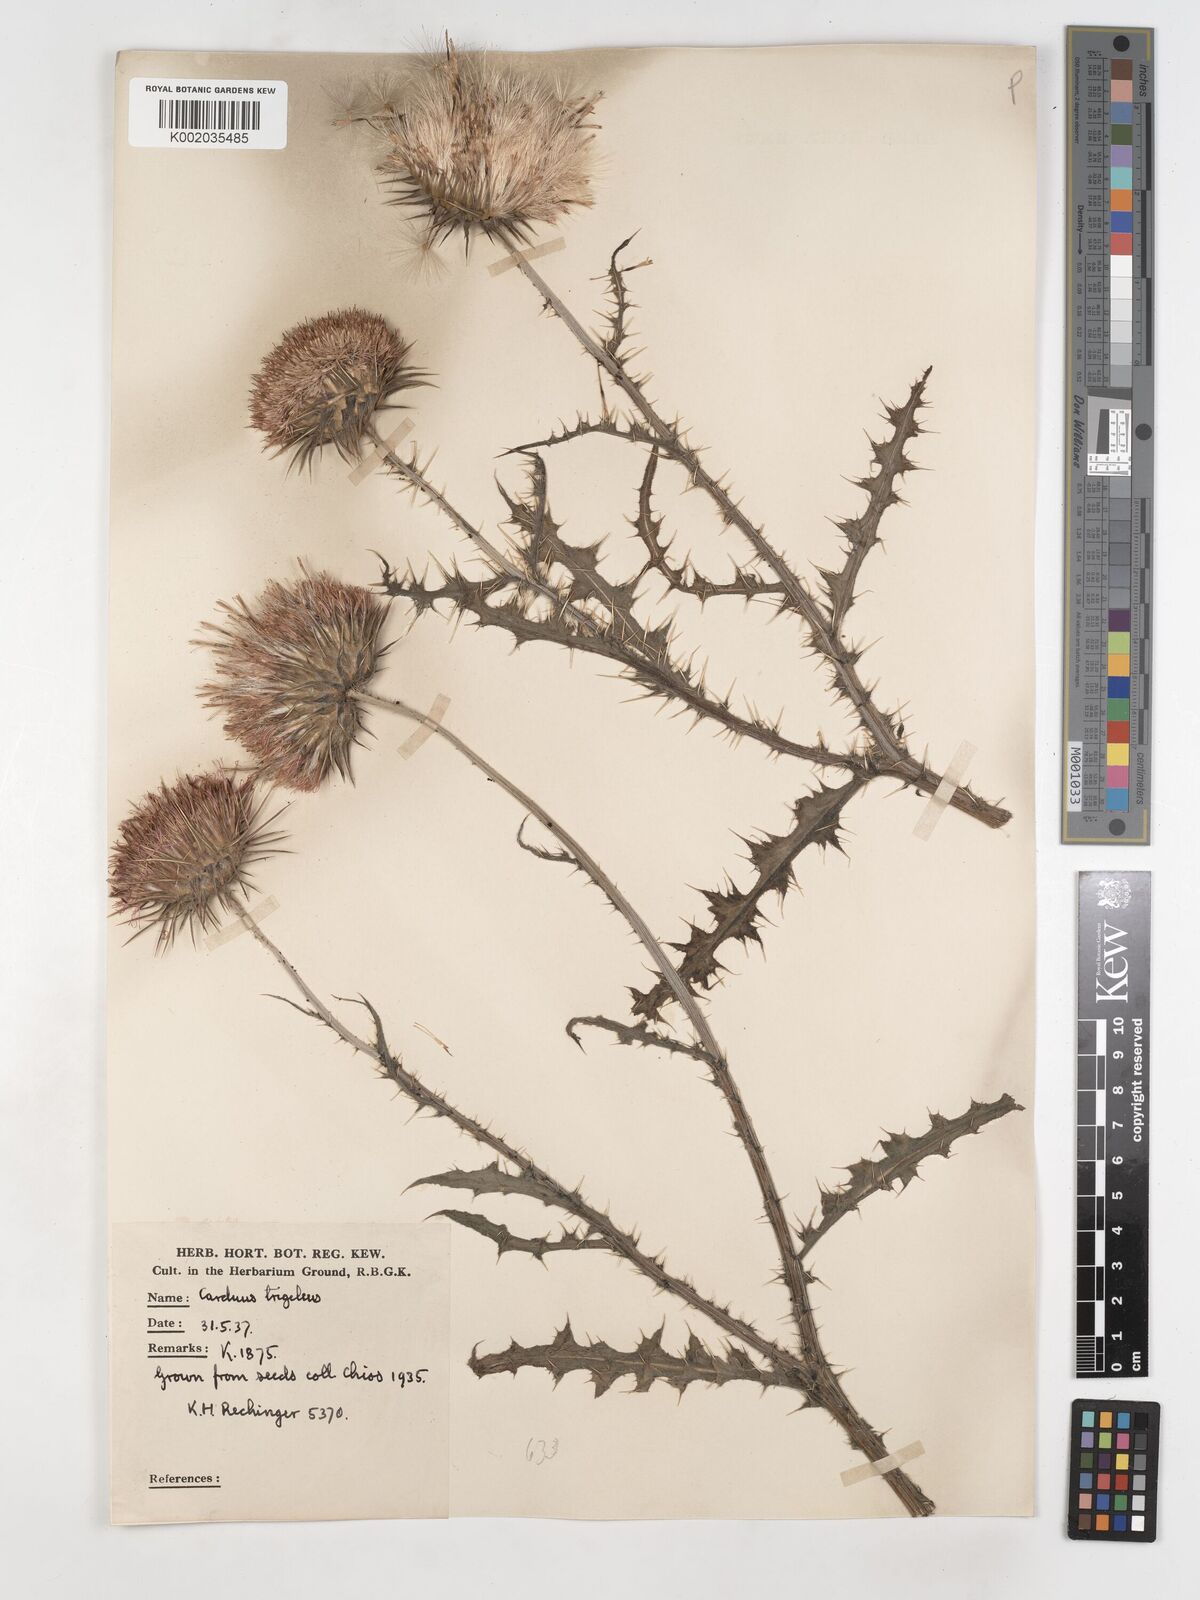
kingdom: Plantae
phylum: Tracheophyta
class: Magnoliopsida
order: Asterales
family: Asteraceae
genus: Carduus
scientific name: Carduus nutans
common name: Musk thistle
